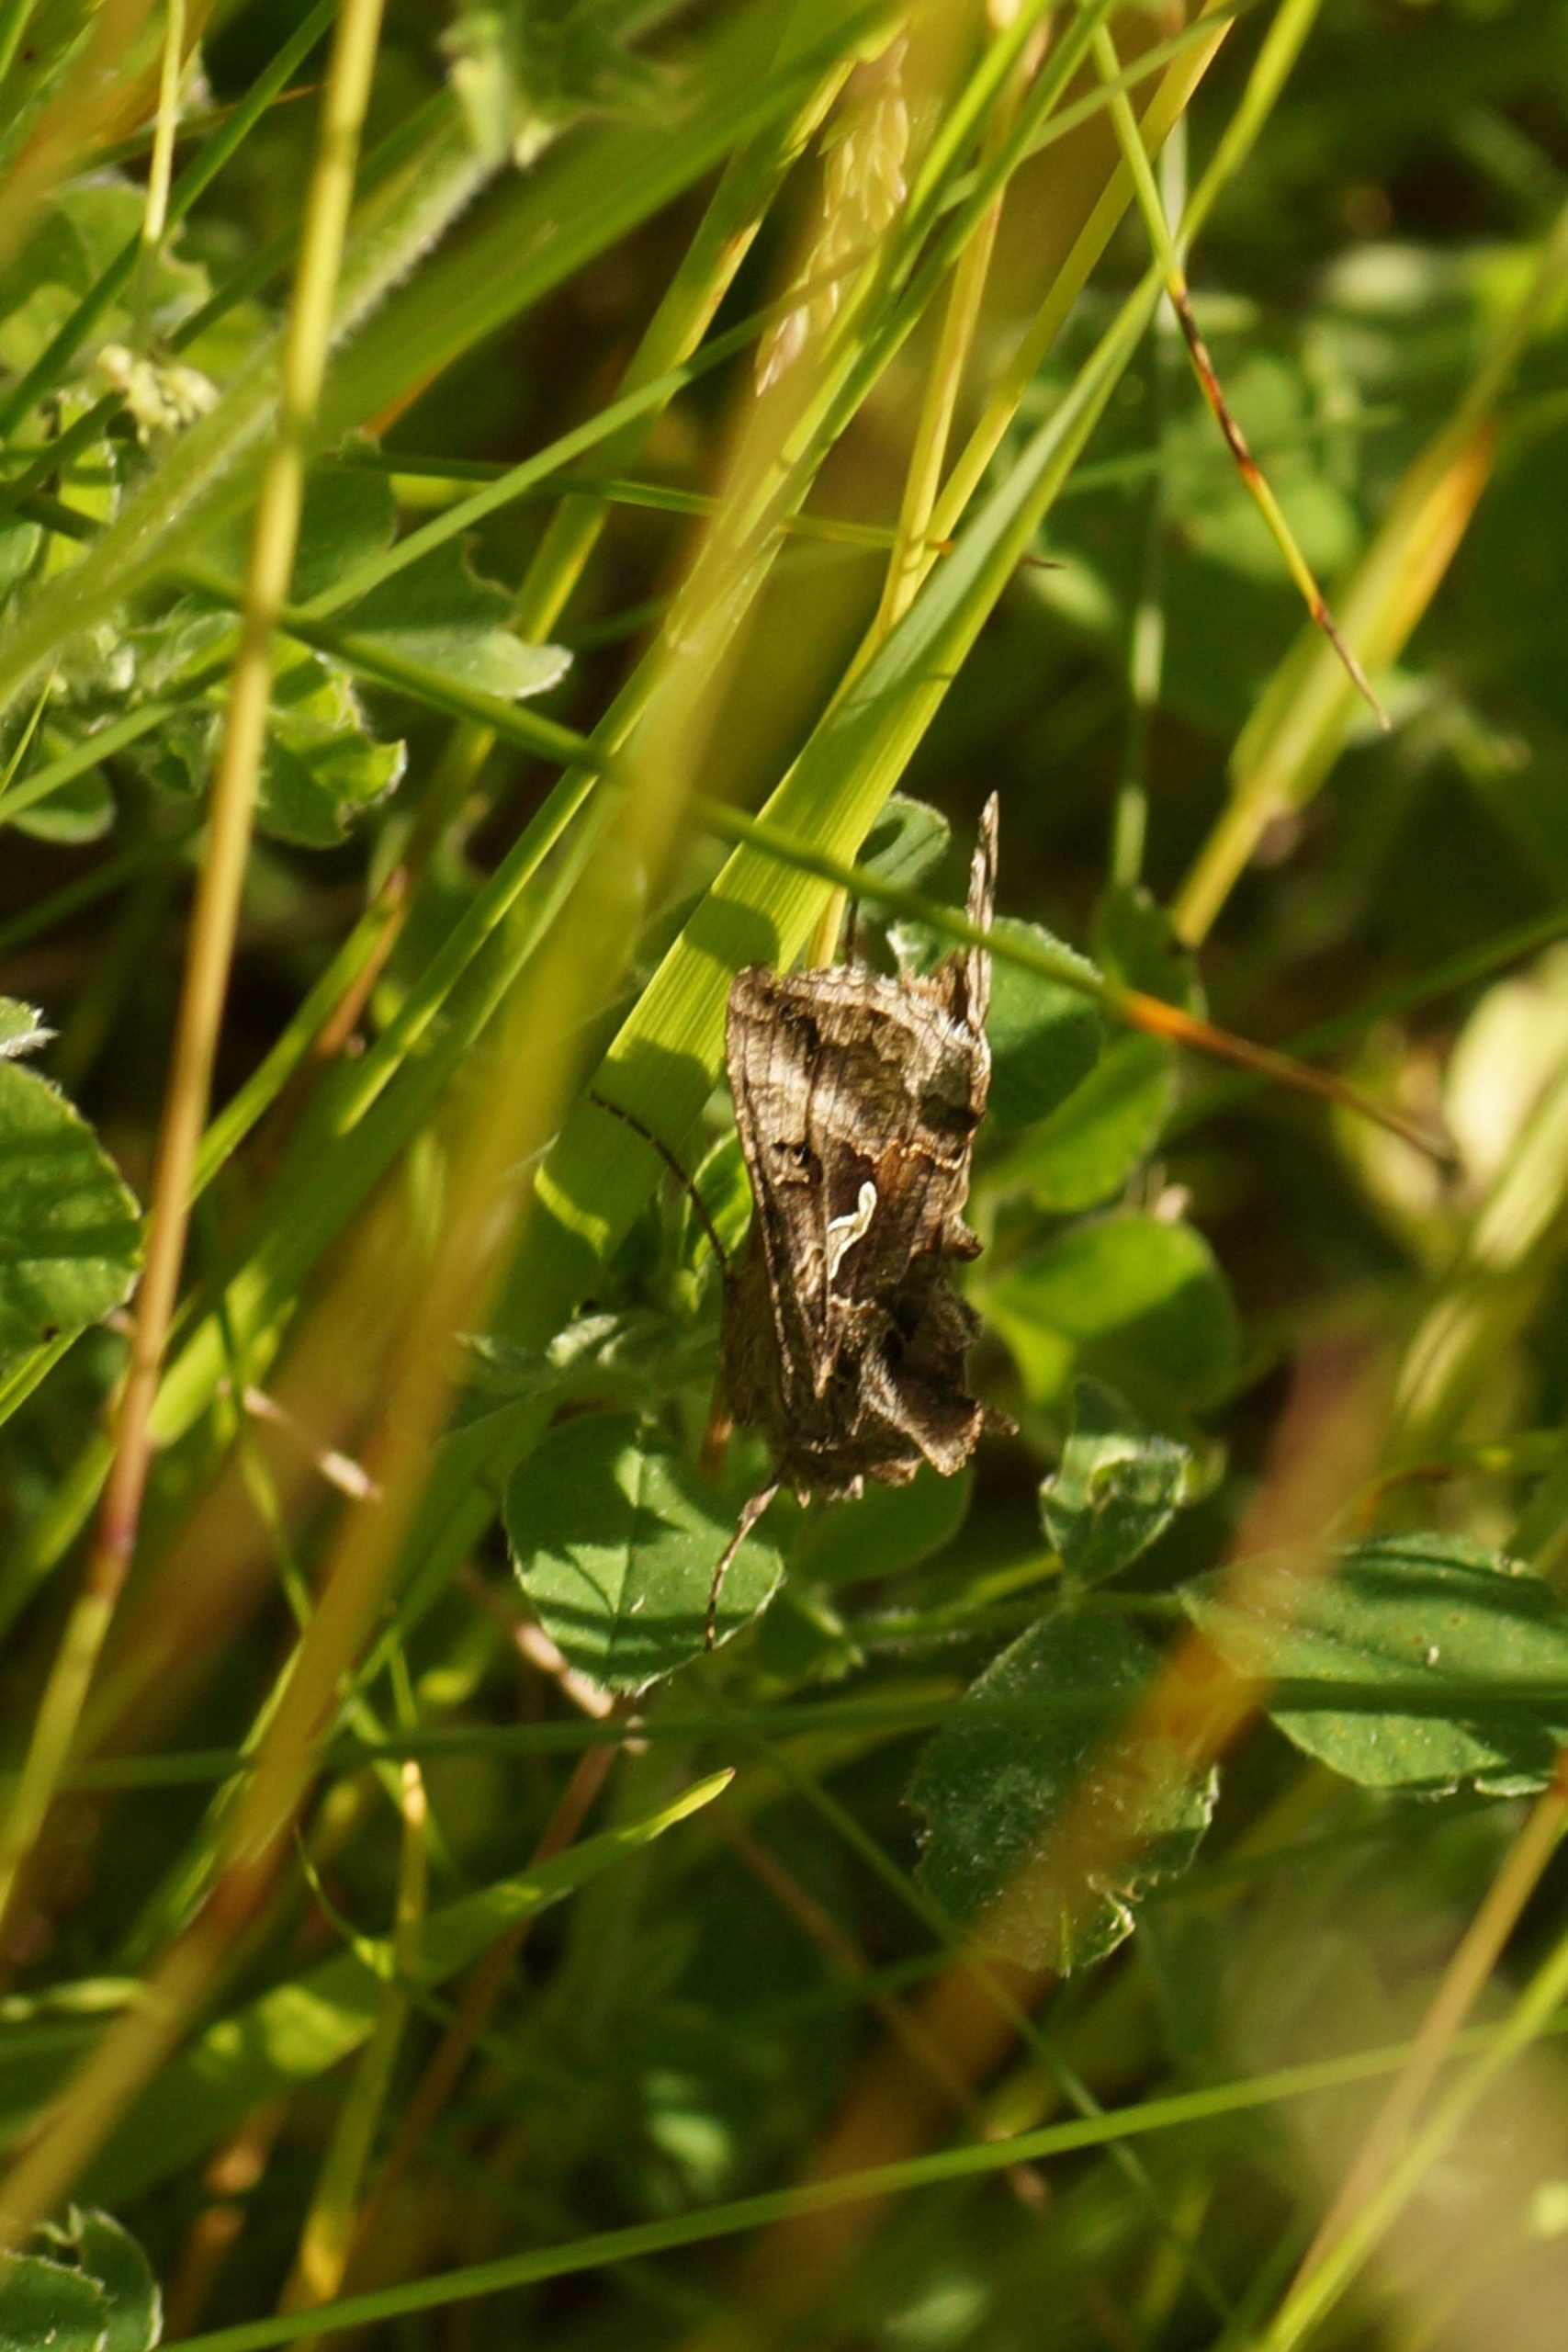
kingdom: Animalia
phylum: Arthropoda
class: Insecta
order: Lepidoptera
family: Noctuidae
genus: Autographa
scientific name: Autographa gamma
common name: Gammaugle
